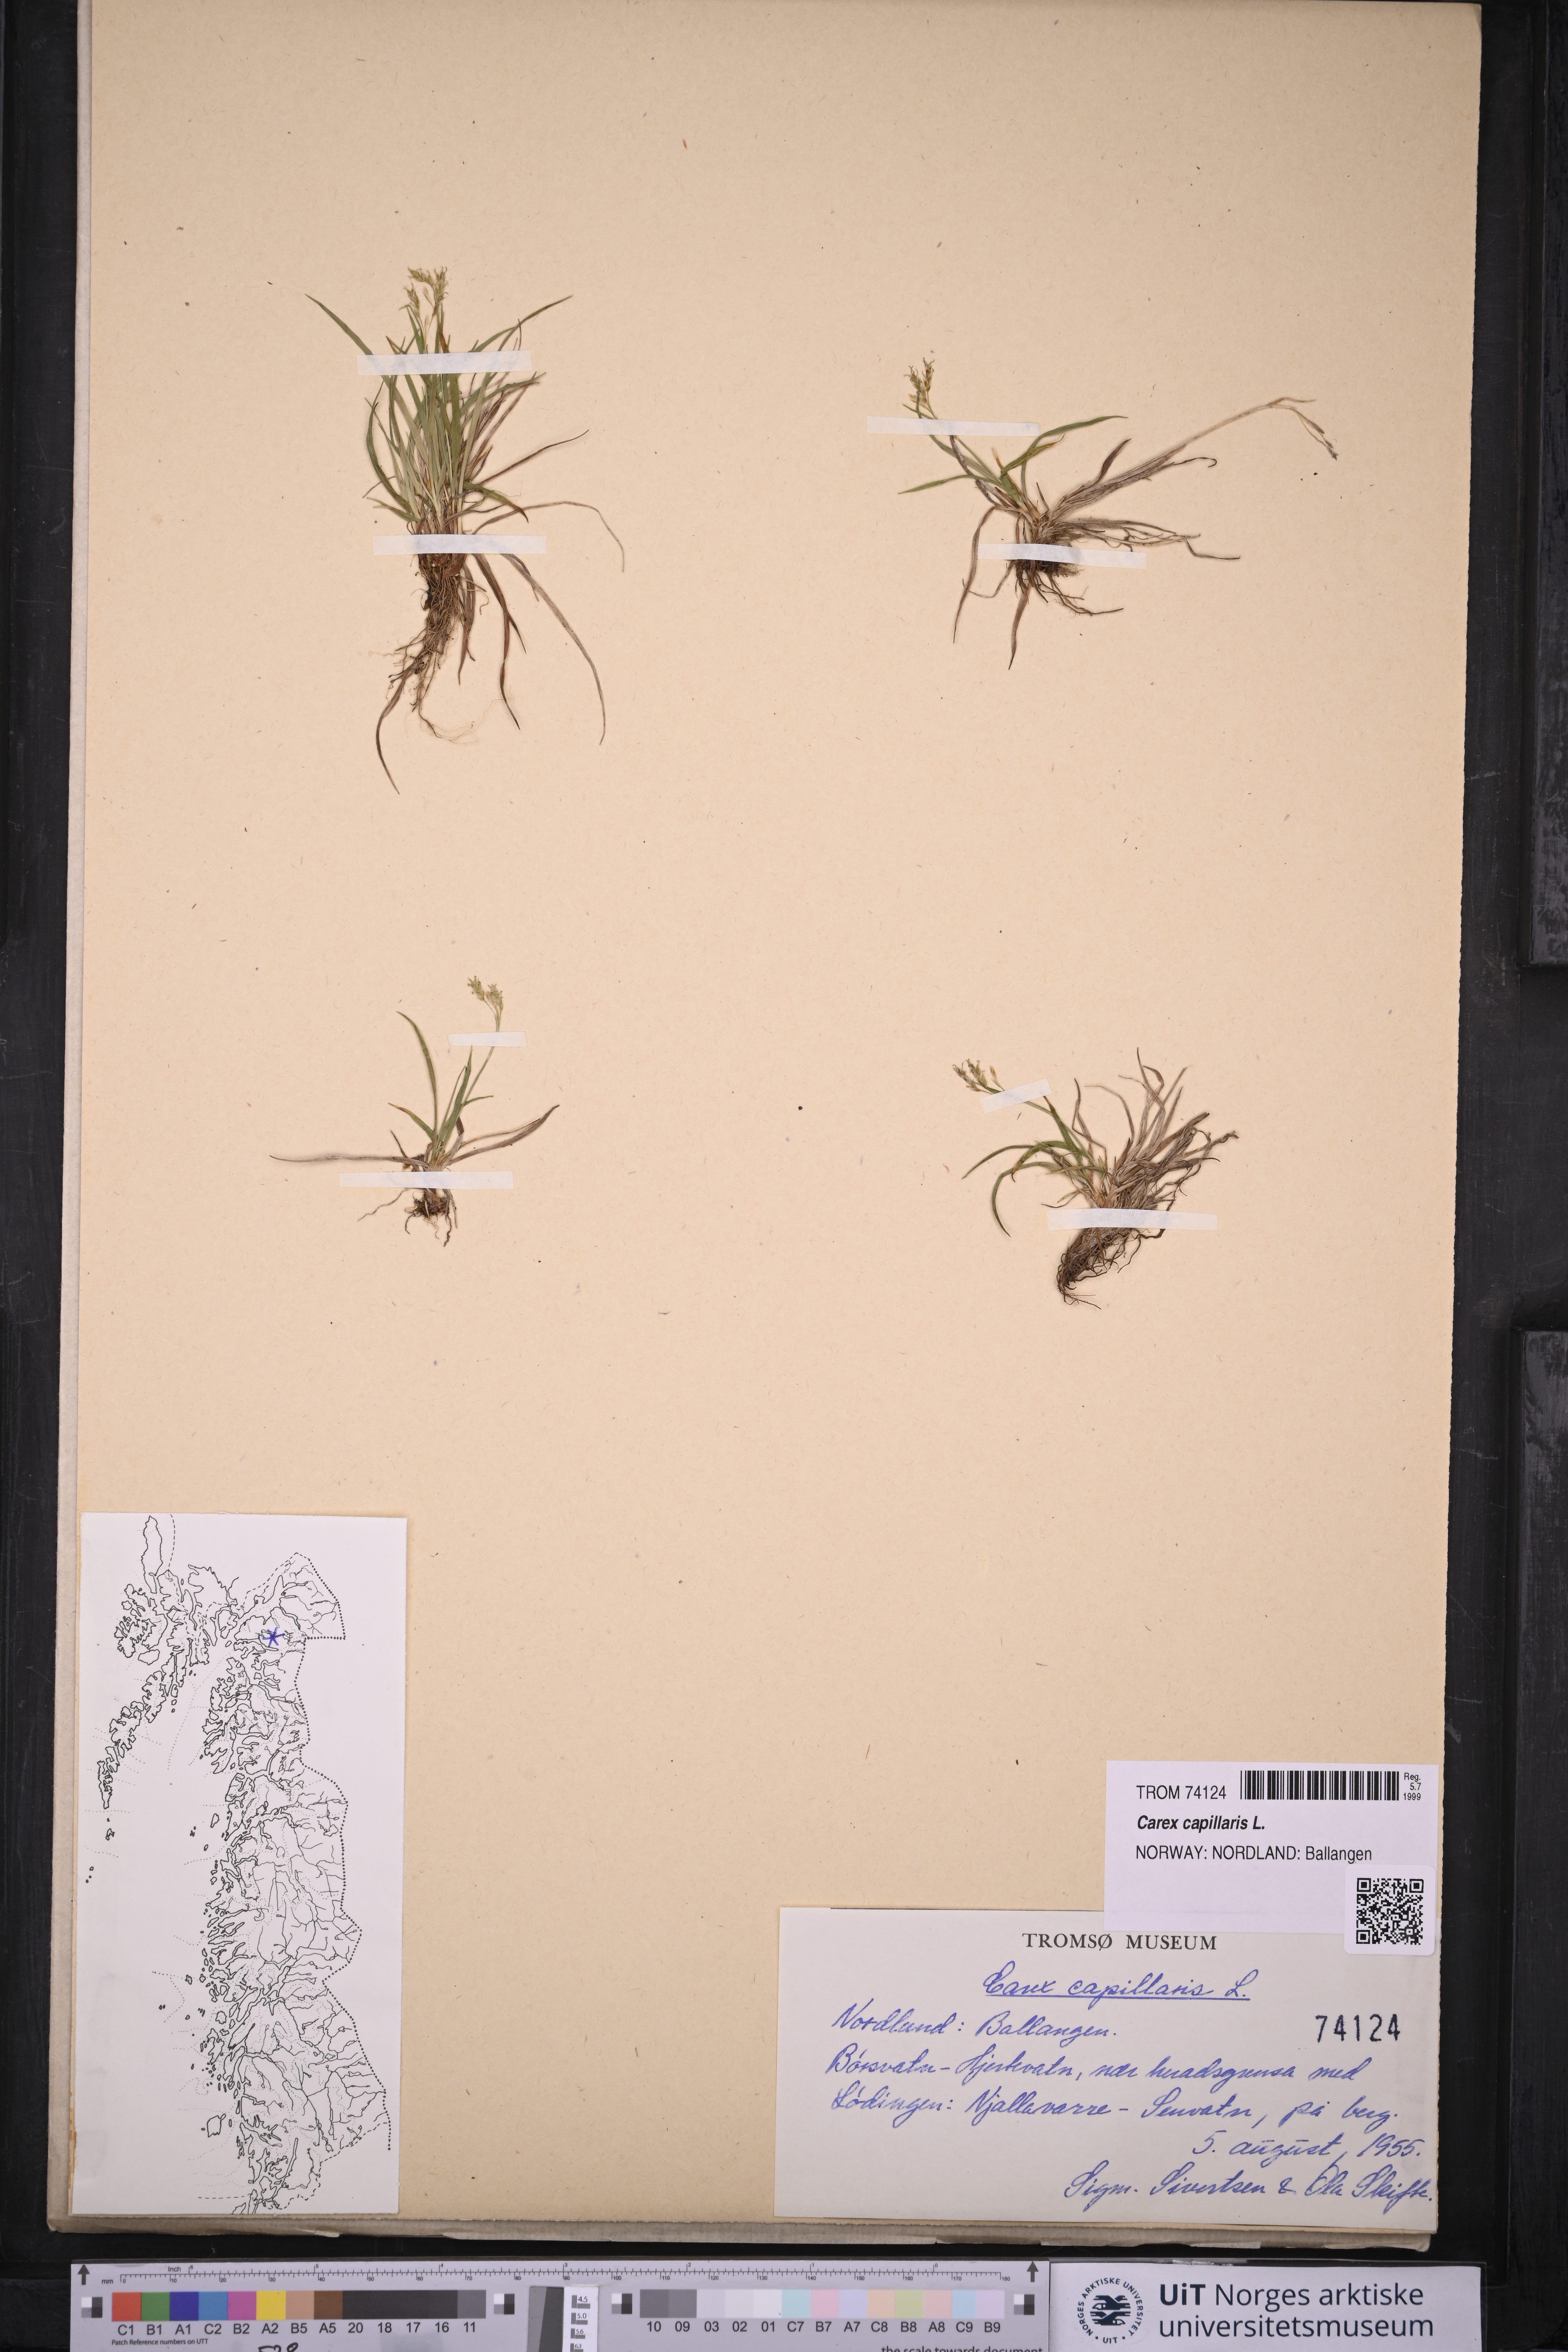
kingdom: Plantae
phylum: Tracheophyta
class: Liliopsida
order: Poales
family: Cyperaceae
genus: Carex
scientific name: Carex capillaris
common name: Hair sedge
